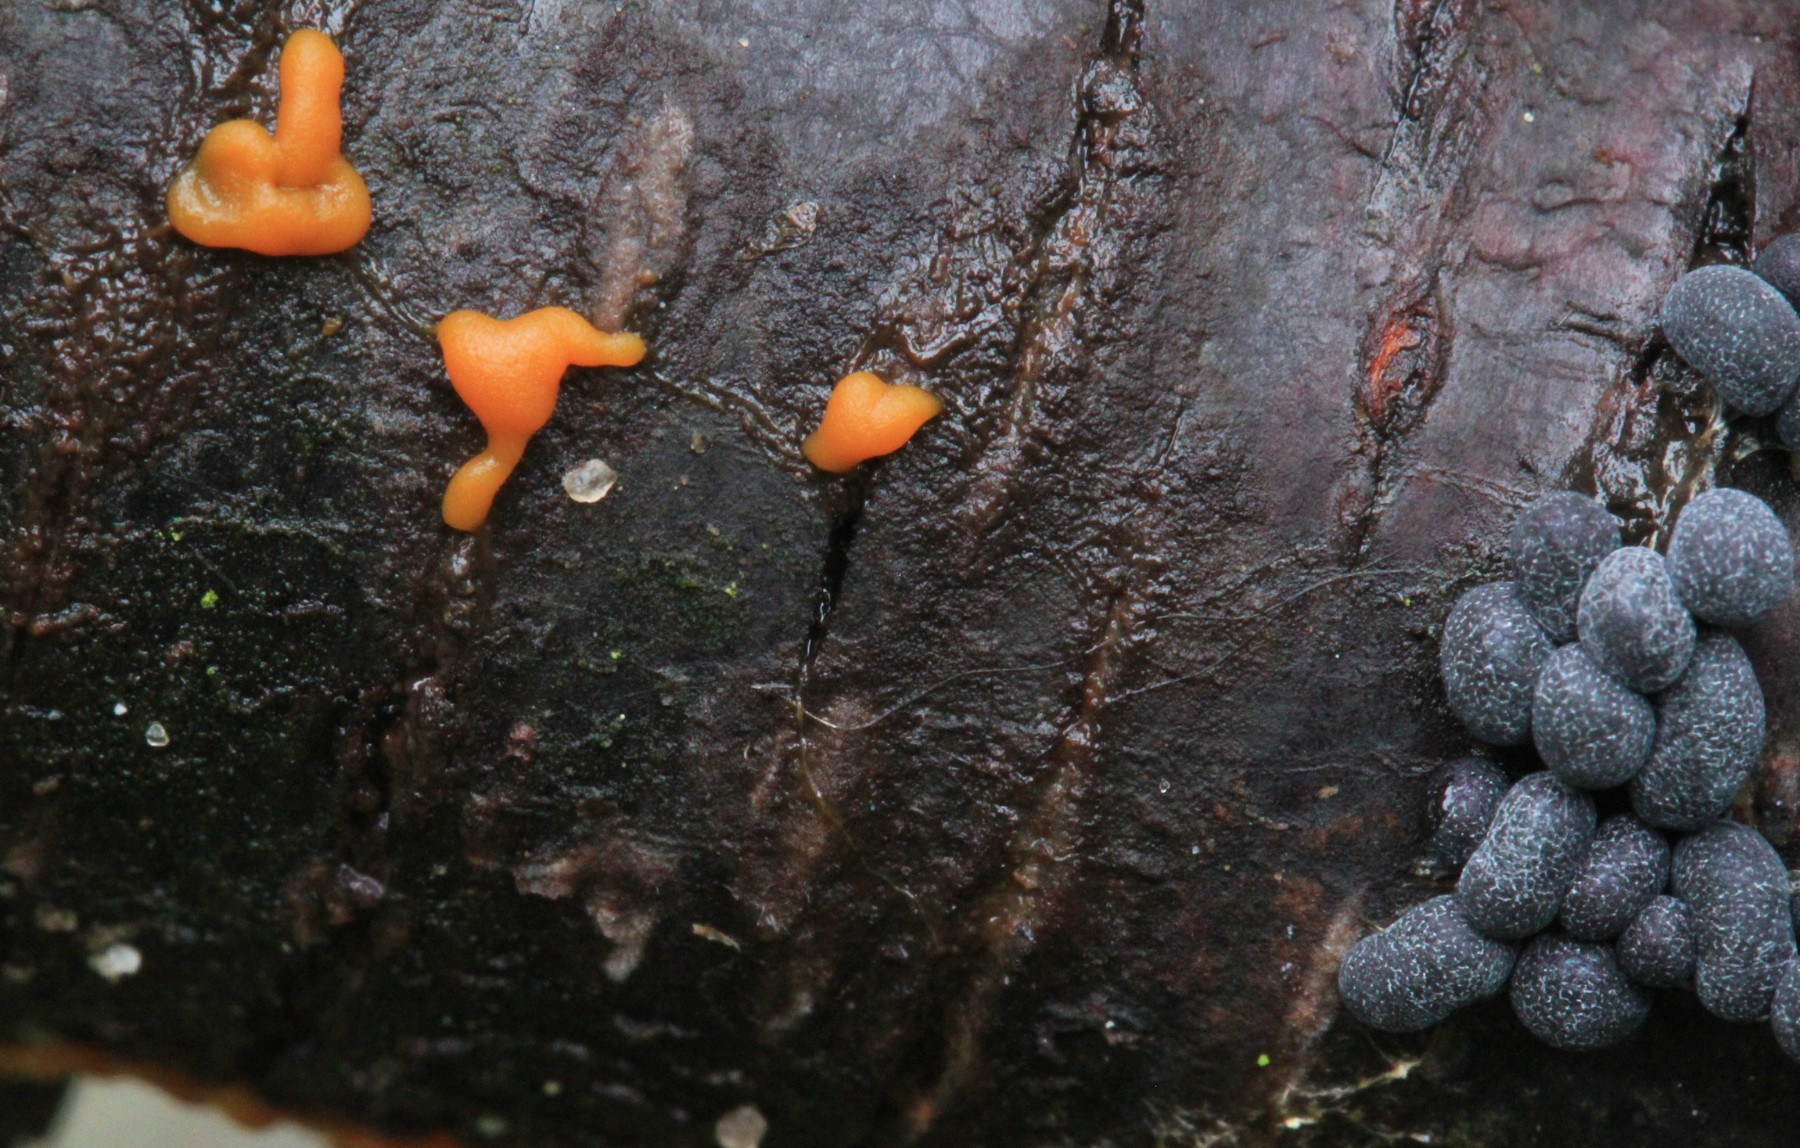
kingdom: Protozoa
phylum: Mycetozoa
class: Myxomycetes
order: Physarales
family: Physaraceae
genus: Badhamia
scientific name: Badhamia utricularis
